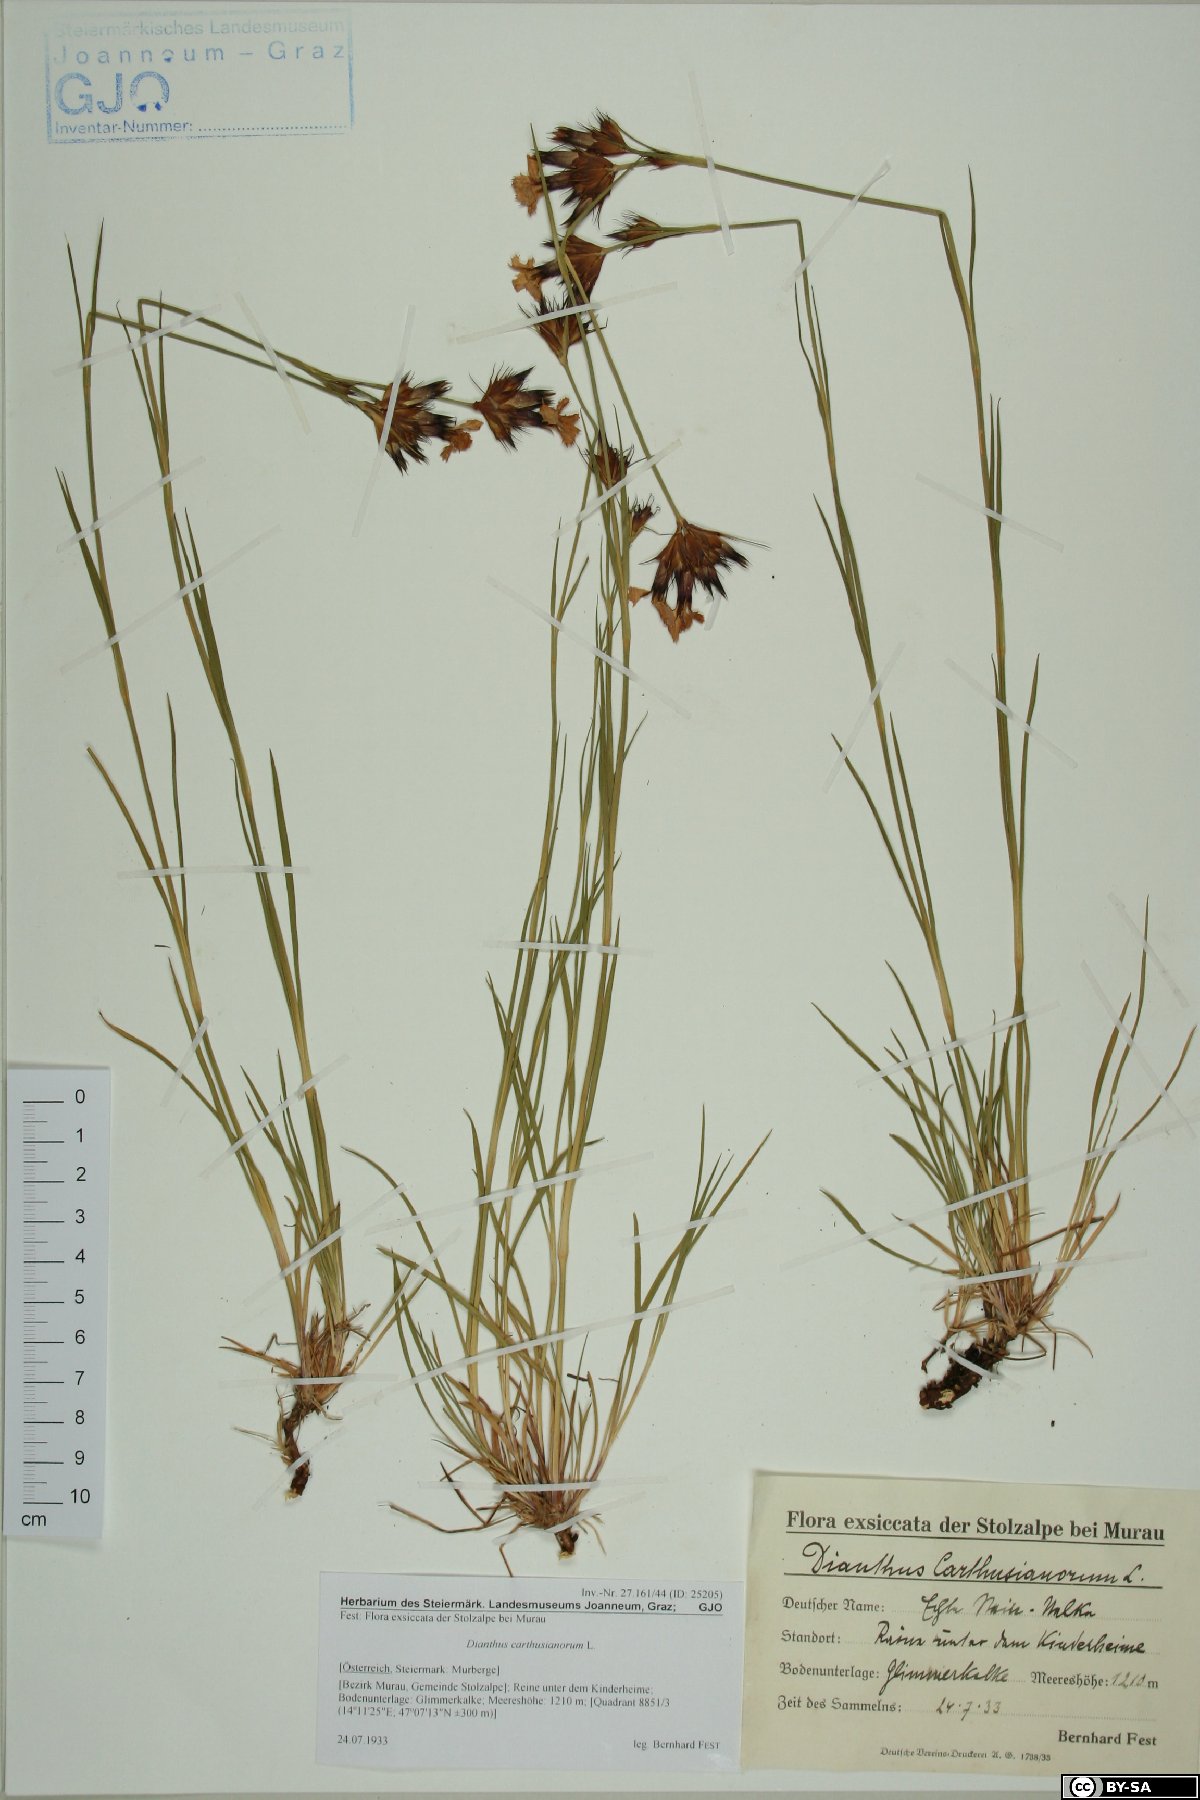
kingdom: Plantae
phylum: Tracheophyta
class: Magnoliopsida
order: Caryophyllales
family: Caryophyllaceae
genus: Dianthus
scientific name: Dianthus carthusianorum
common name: Carthusian pink
